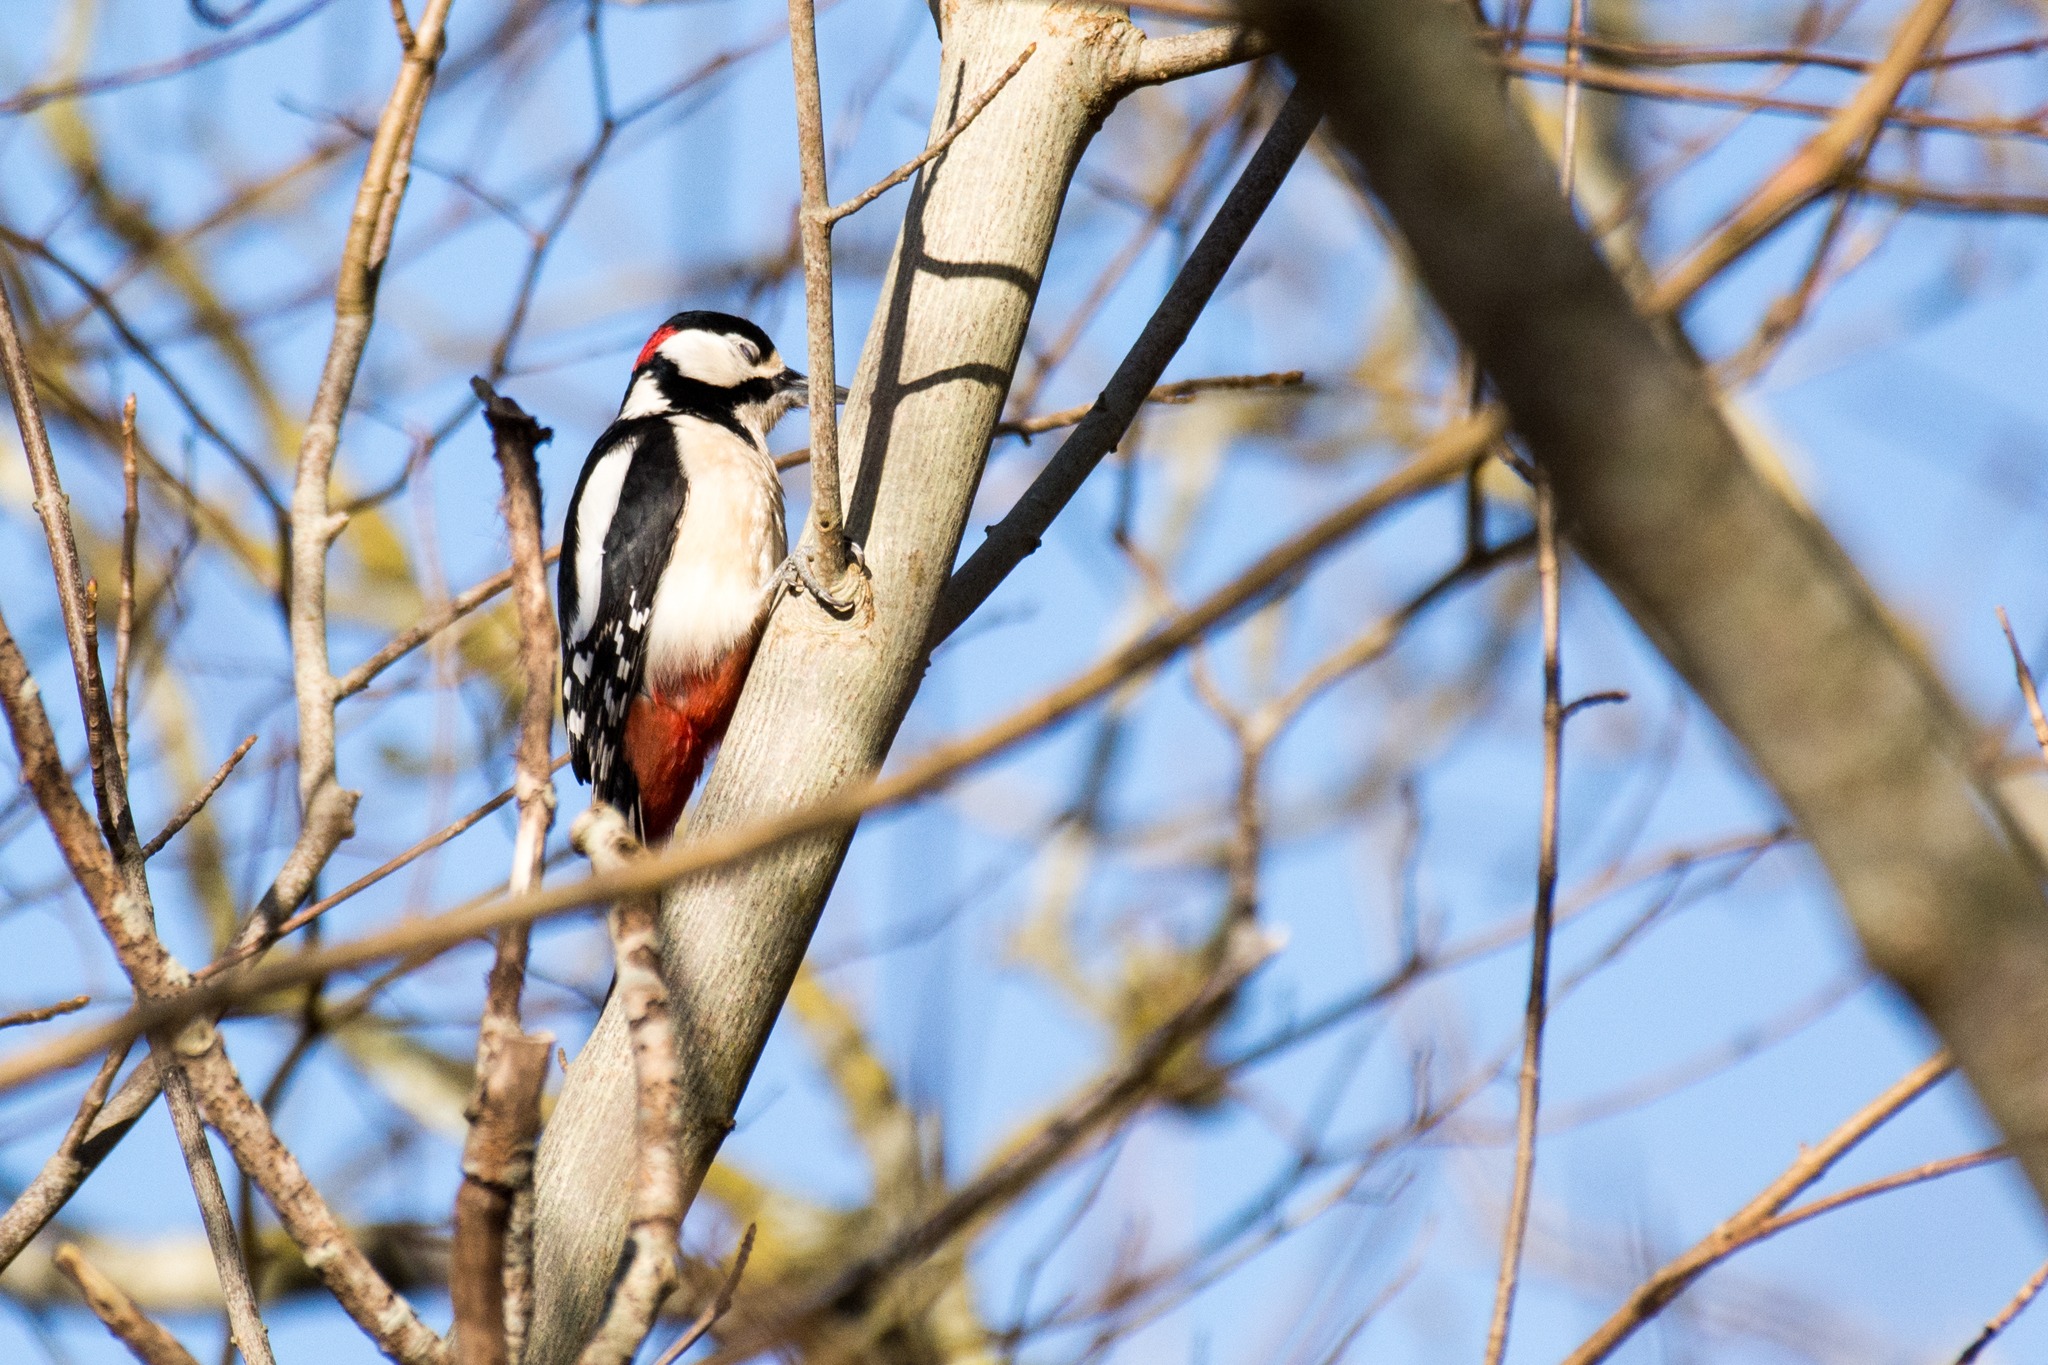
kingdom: Animalia
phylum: Chordata
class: Aves
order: Piciformes
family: Picidae
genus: Dendrocopos
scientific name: Dendrocopos major
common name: Stor flagspætte
